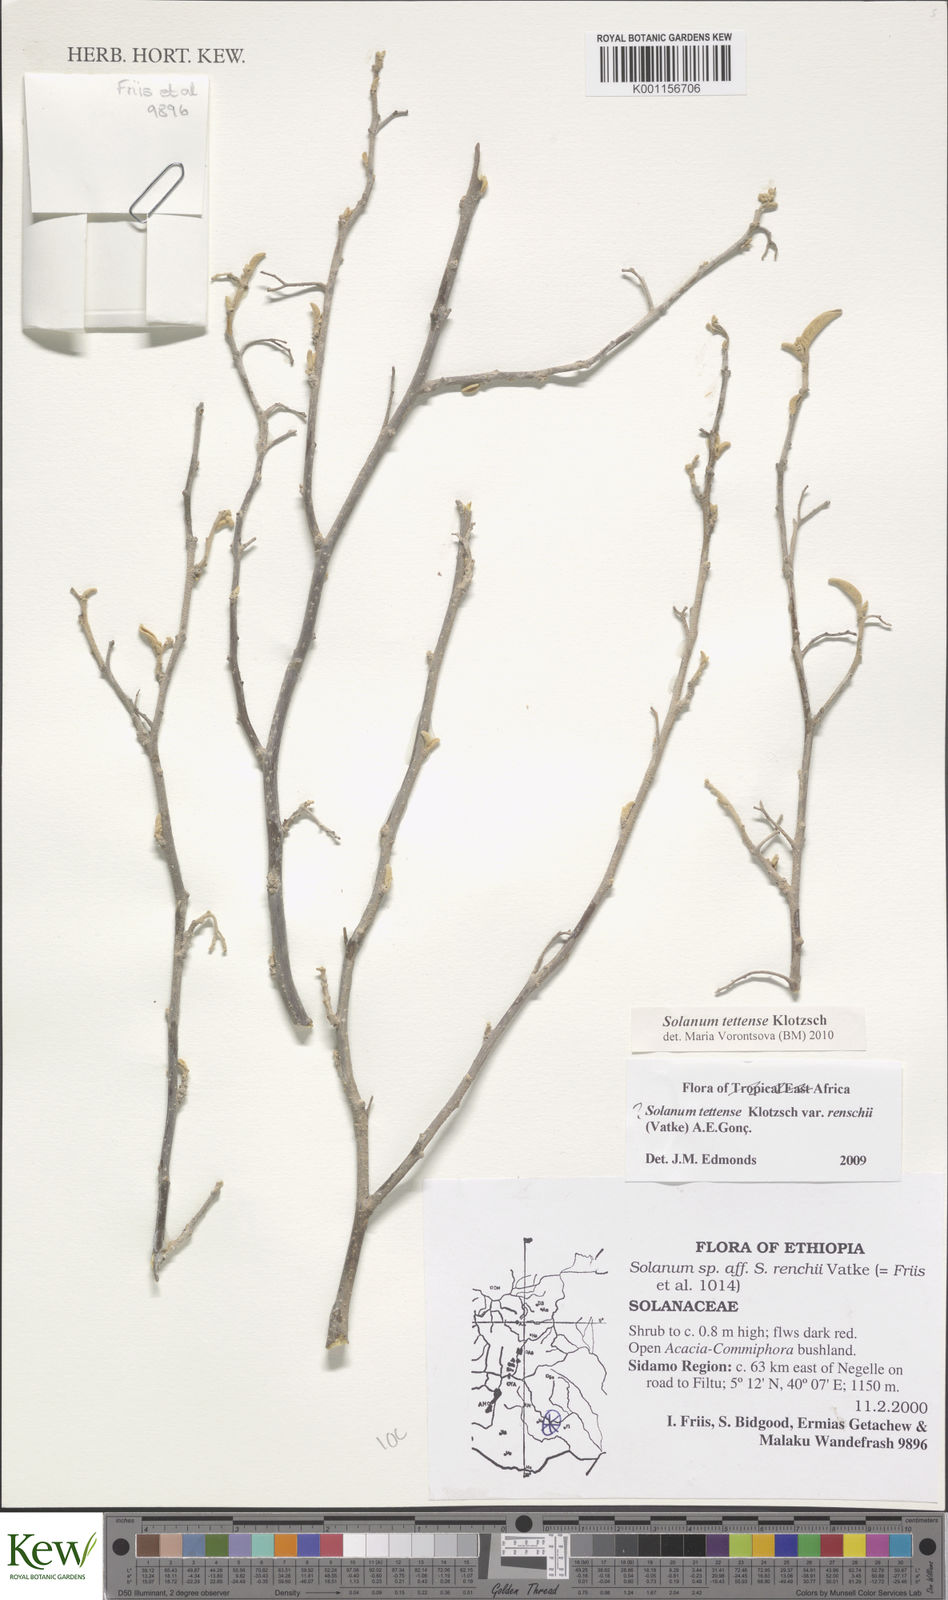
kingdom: Plantae
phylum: Tracheophyta
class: Magnoliopsida
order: Solanales
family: Solanaceae
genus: Solanum
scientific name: Solanum tettense
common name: Mozambique bitter apple
